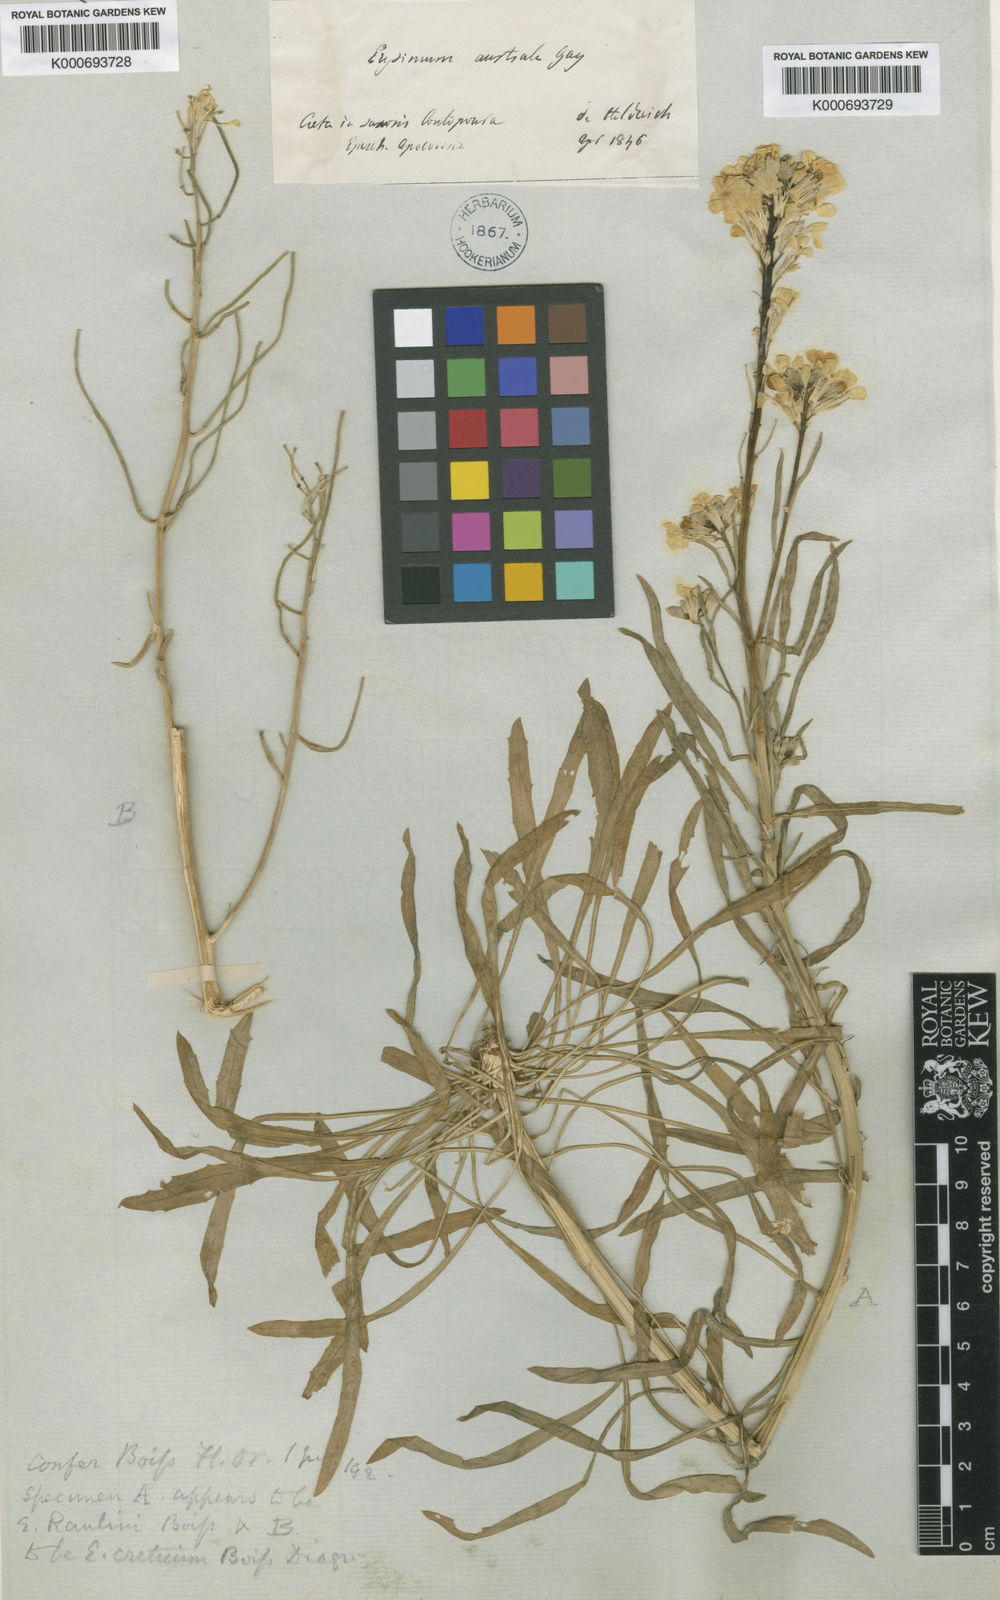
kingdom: Plantae
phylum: Tracheophyta
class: Magnoliopsida
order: Brassicales
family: Brassicaceae
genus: Erysimum
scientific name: Erysimum raulinii
